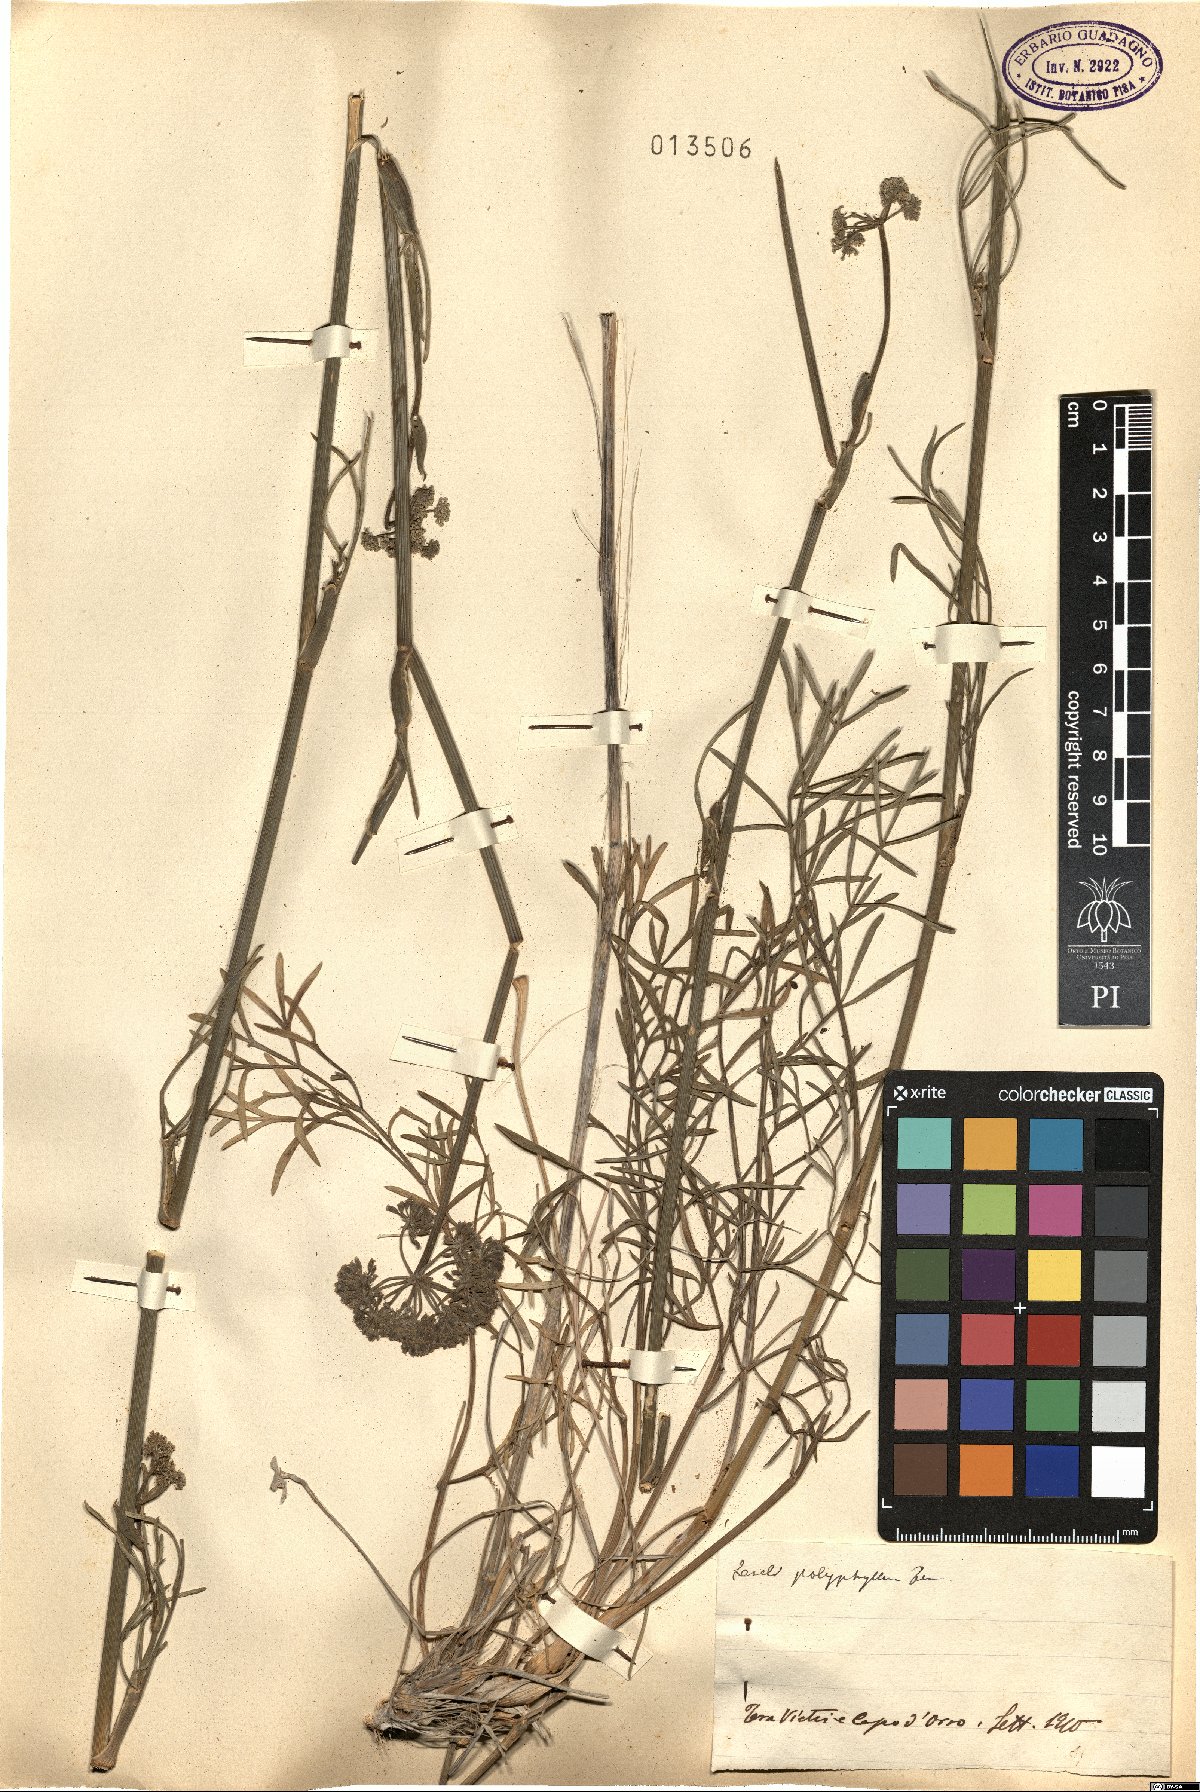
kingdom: Plantae
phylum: Tracheophyta
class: Magnoliopsida
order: Apiales
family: Apiaceae
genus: Seseli
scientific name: Seseli polyphyllum
